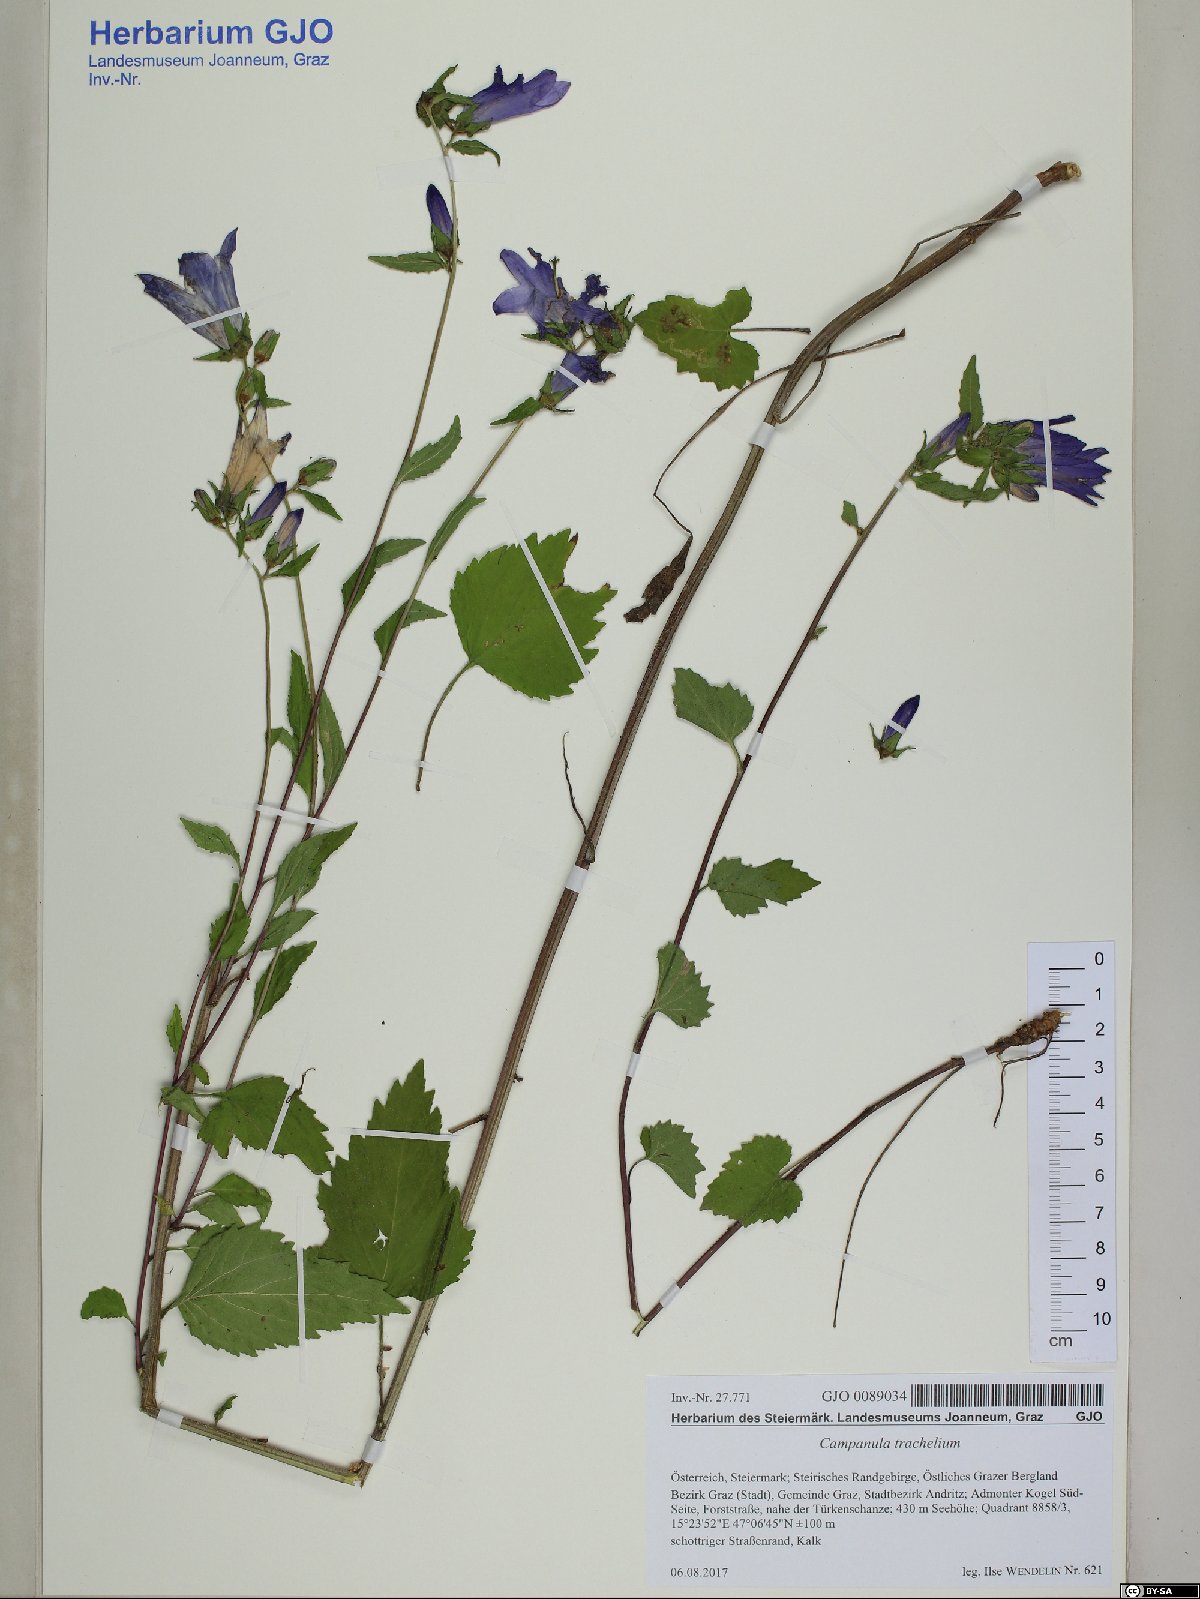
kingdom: Plantae
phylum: Tracheophyta
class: Magnoliopsida
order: Asterales
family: Campanulaceae
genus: Campanula
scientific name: Campanula trachelium
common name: Nettle-leaved bellflower
